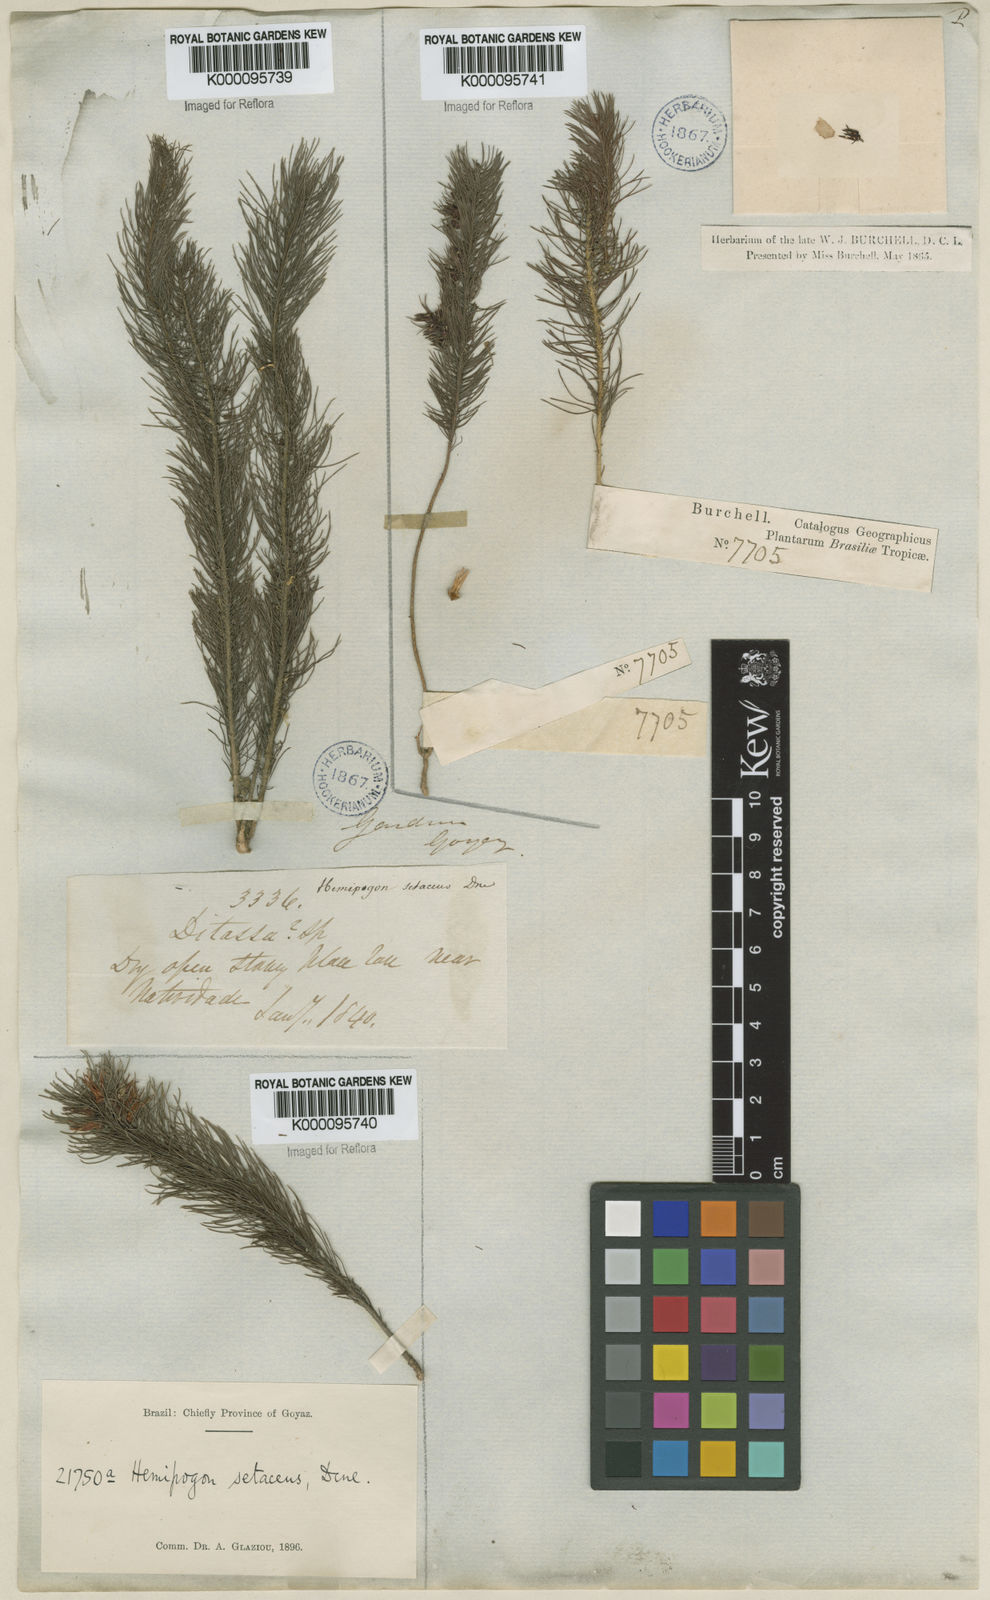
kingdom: Plantae
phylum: Tracheophyta
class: Magnoliopsida
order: Gentianales
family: Apocynaceae
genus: Hemipogon
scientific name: Hemipogon
